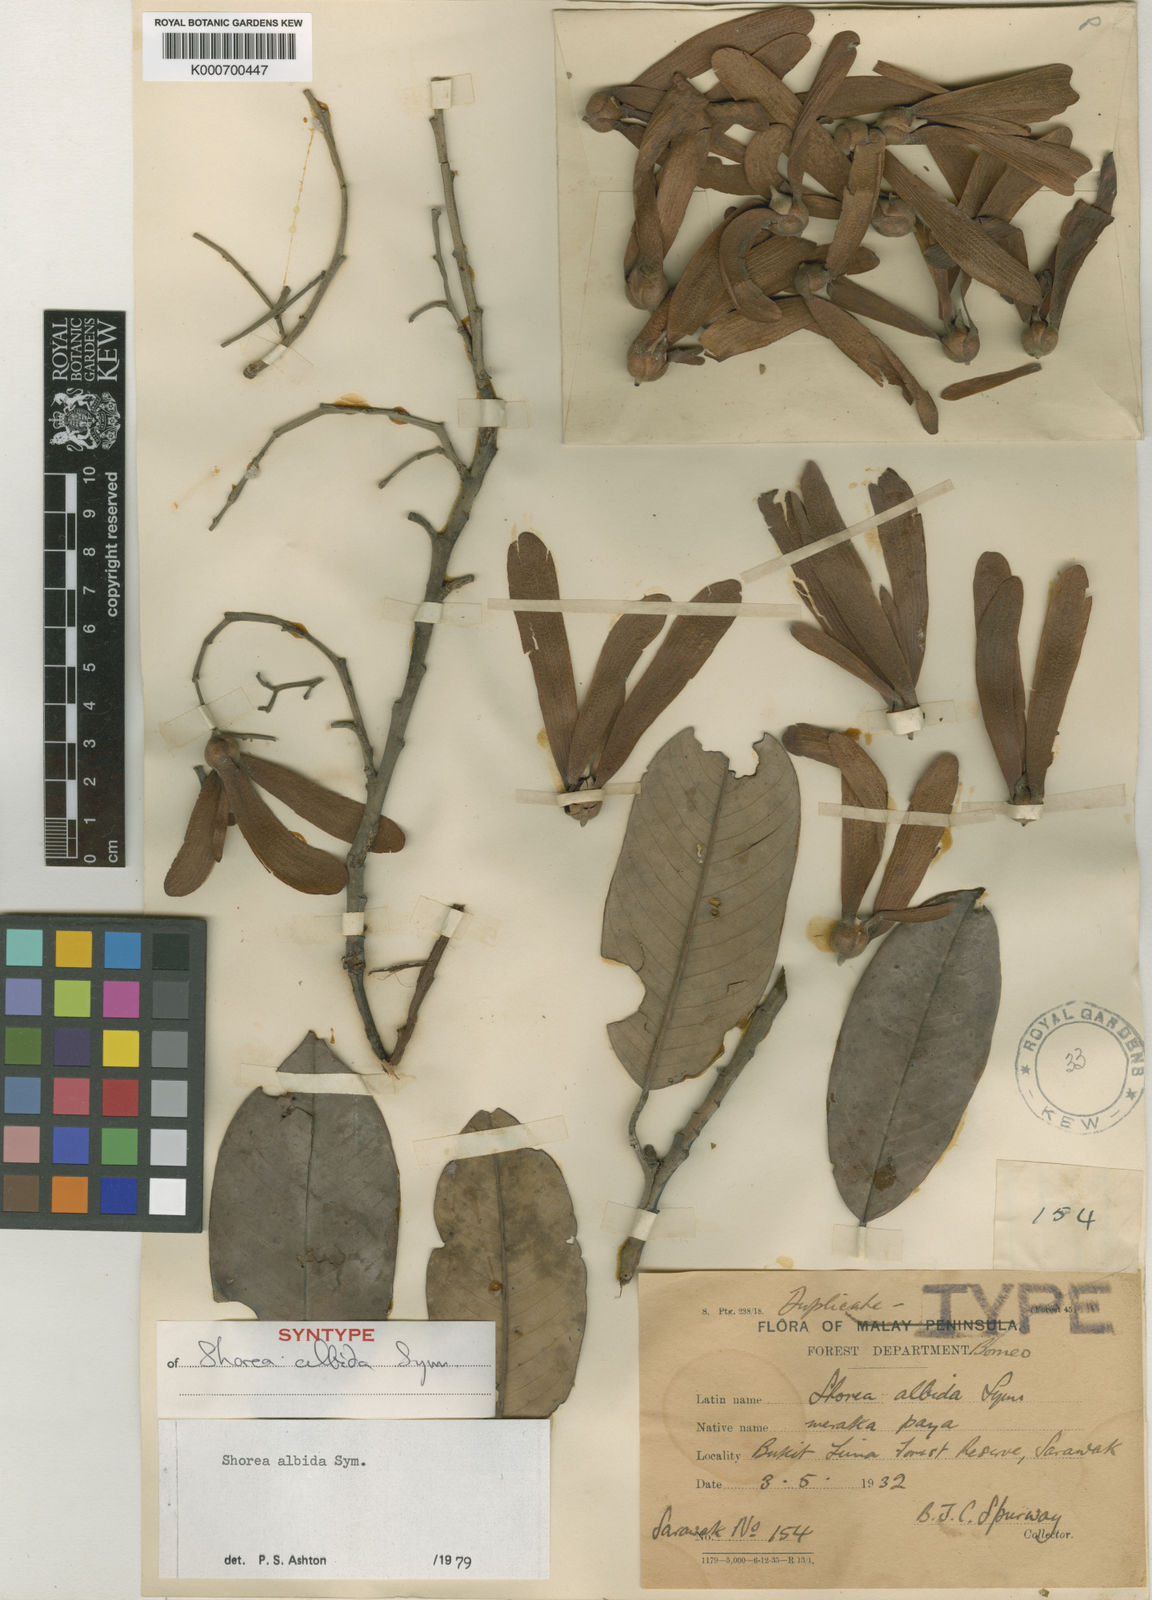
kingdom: Plantae
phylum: Tracheophyta
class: Magnoliopsida
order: Malvales
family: Dipterocarpaceae
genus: Shorea
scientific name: Shorea
